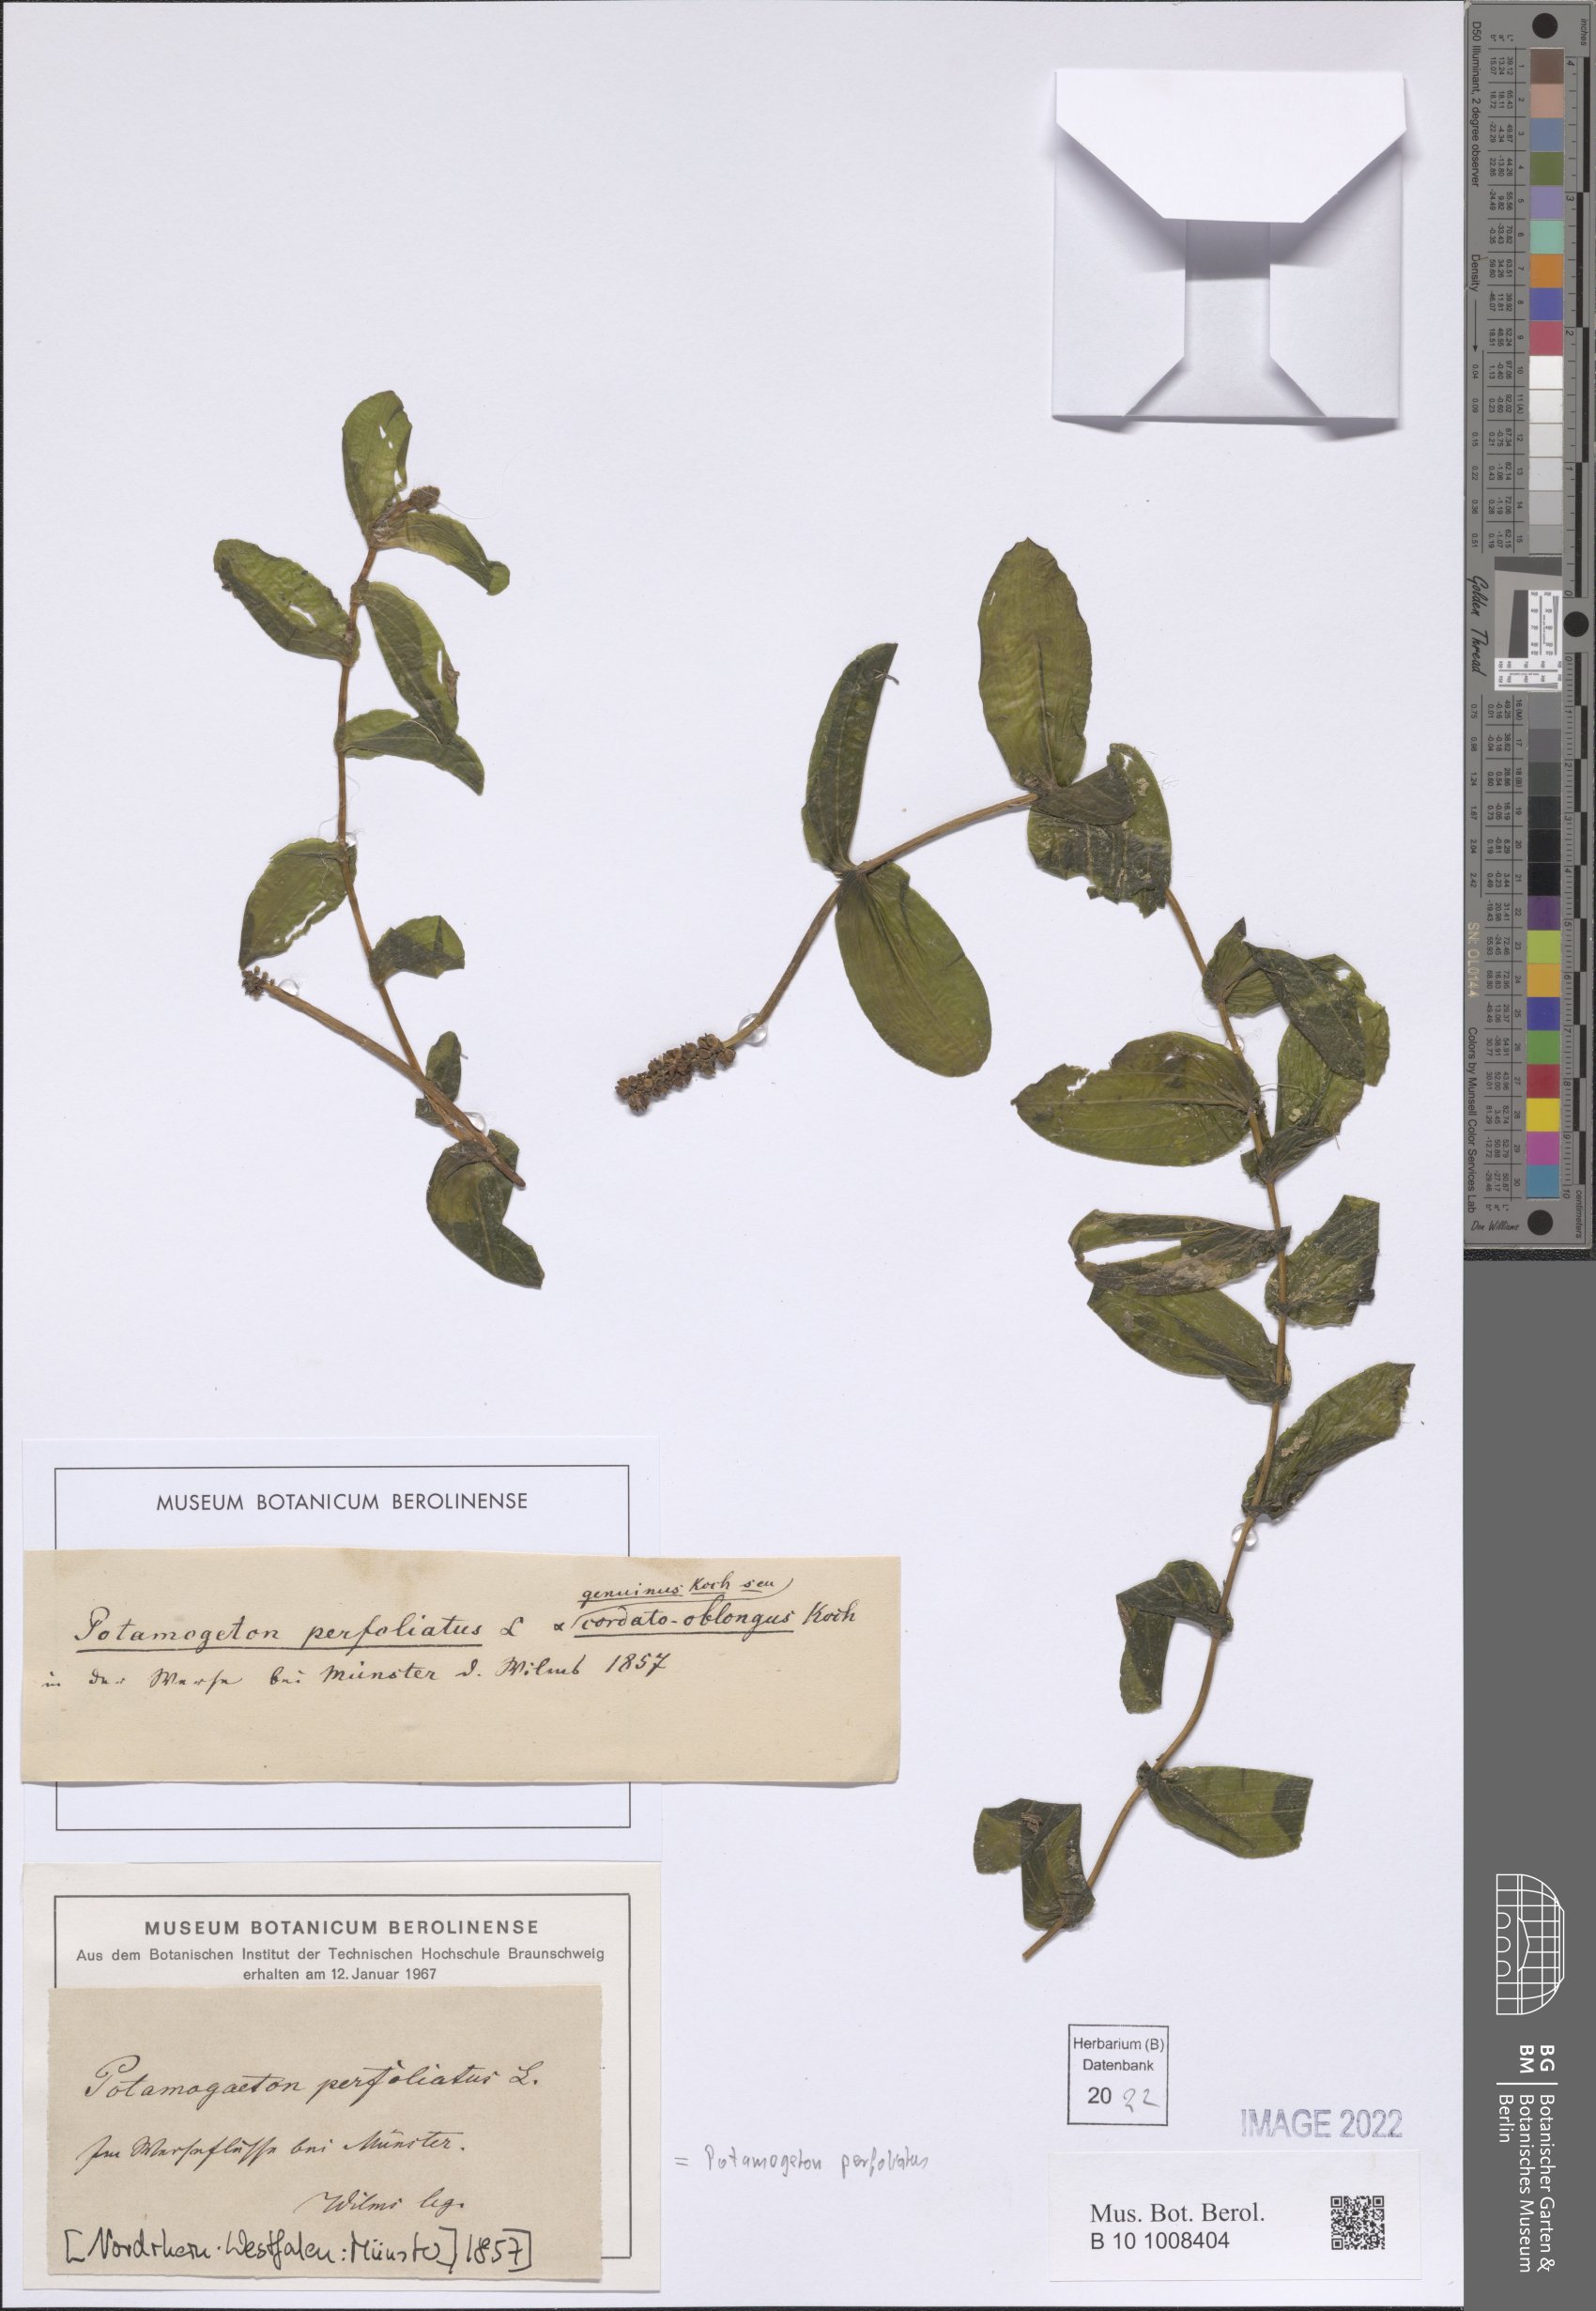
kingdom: Plantae
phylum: Tracheophyta
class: Liliopsida
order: Alismatales
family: Potamogetonaceae
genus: Potamogeton
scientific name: Potamogeton perfoliatus
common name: Perfoliate pondweed
